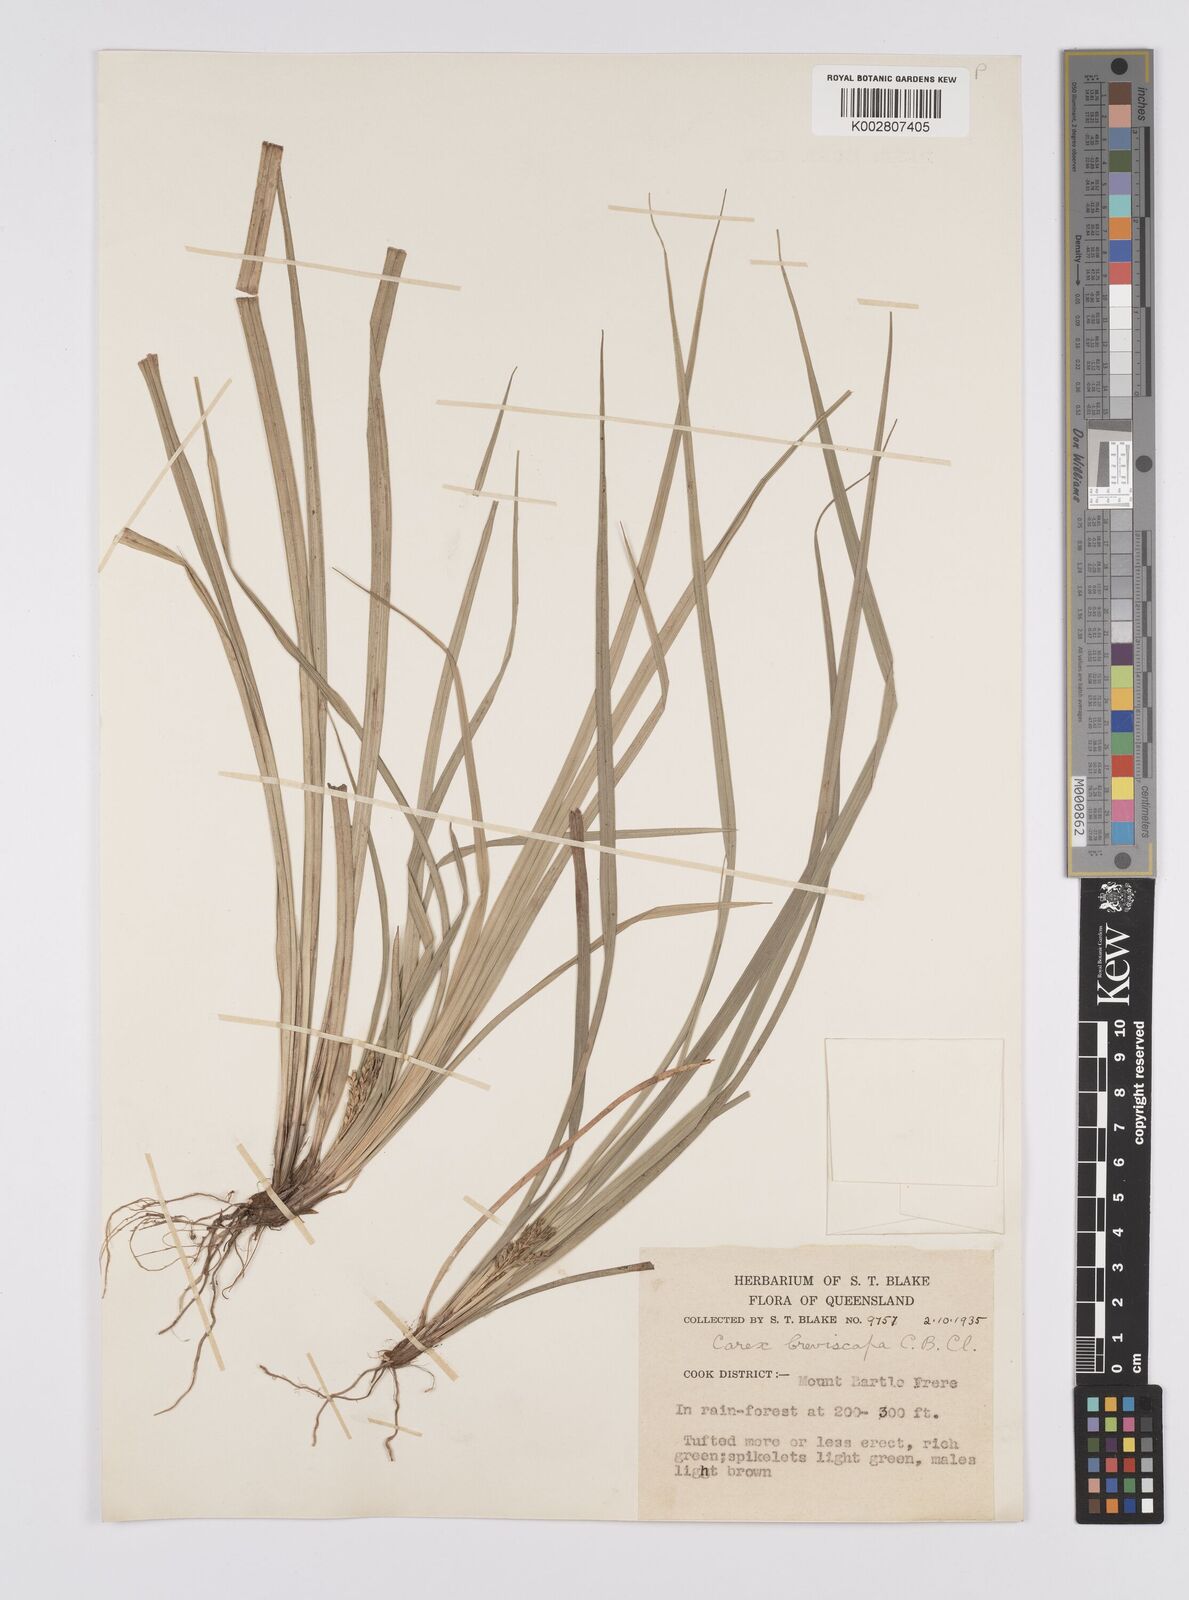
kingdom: Plantae
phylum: Tracheophyta
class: Liliopsida
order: Poales
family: Cyperaceae
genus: Carex
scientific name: Carex breviscapa
